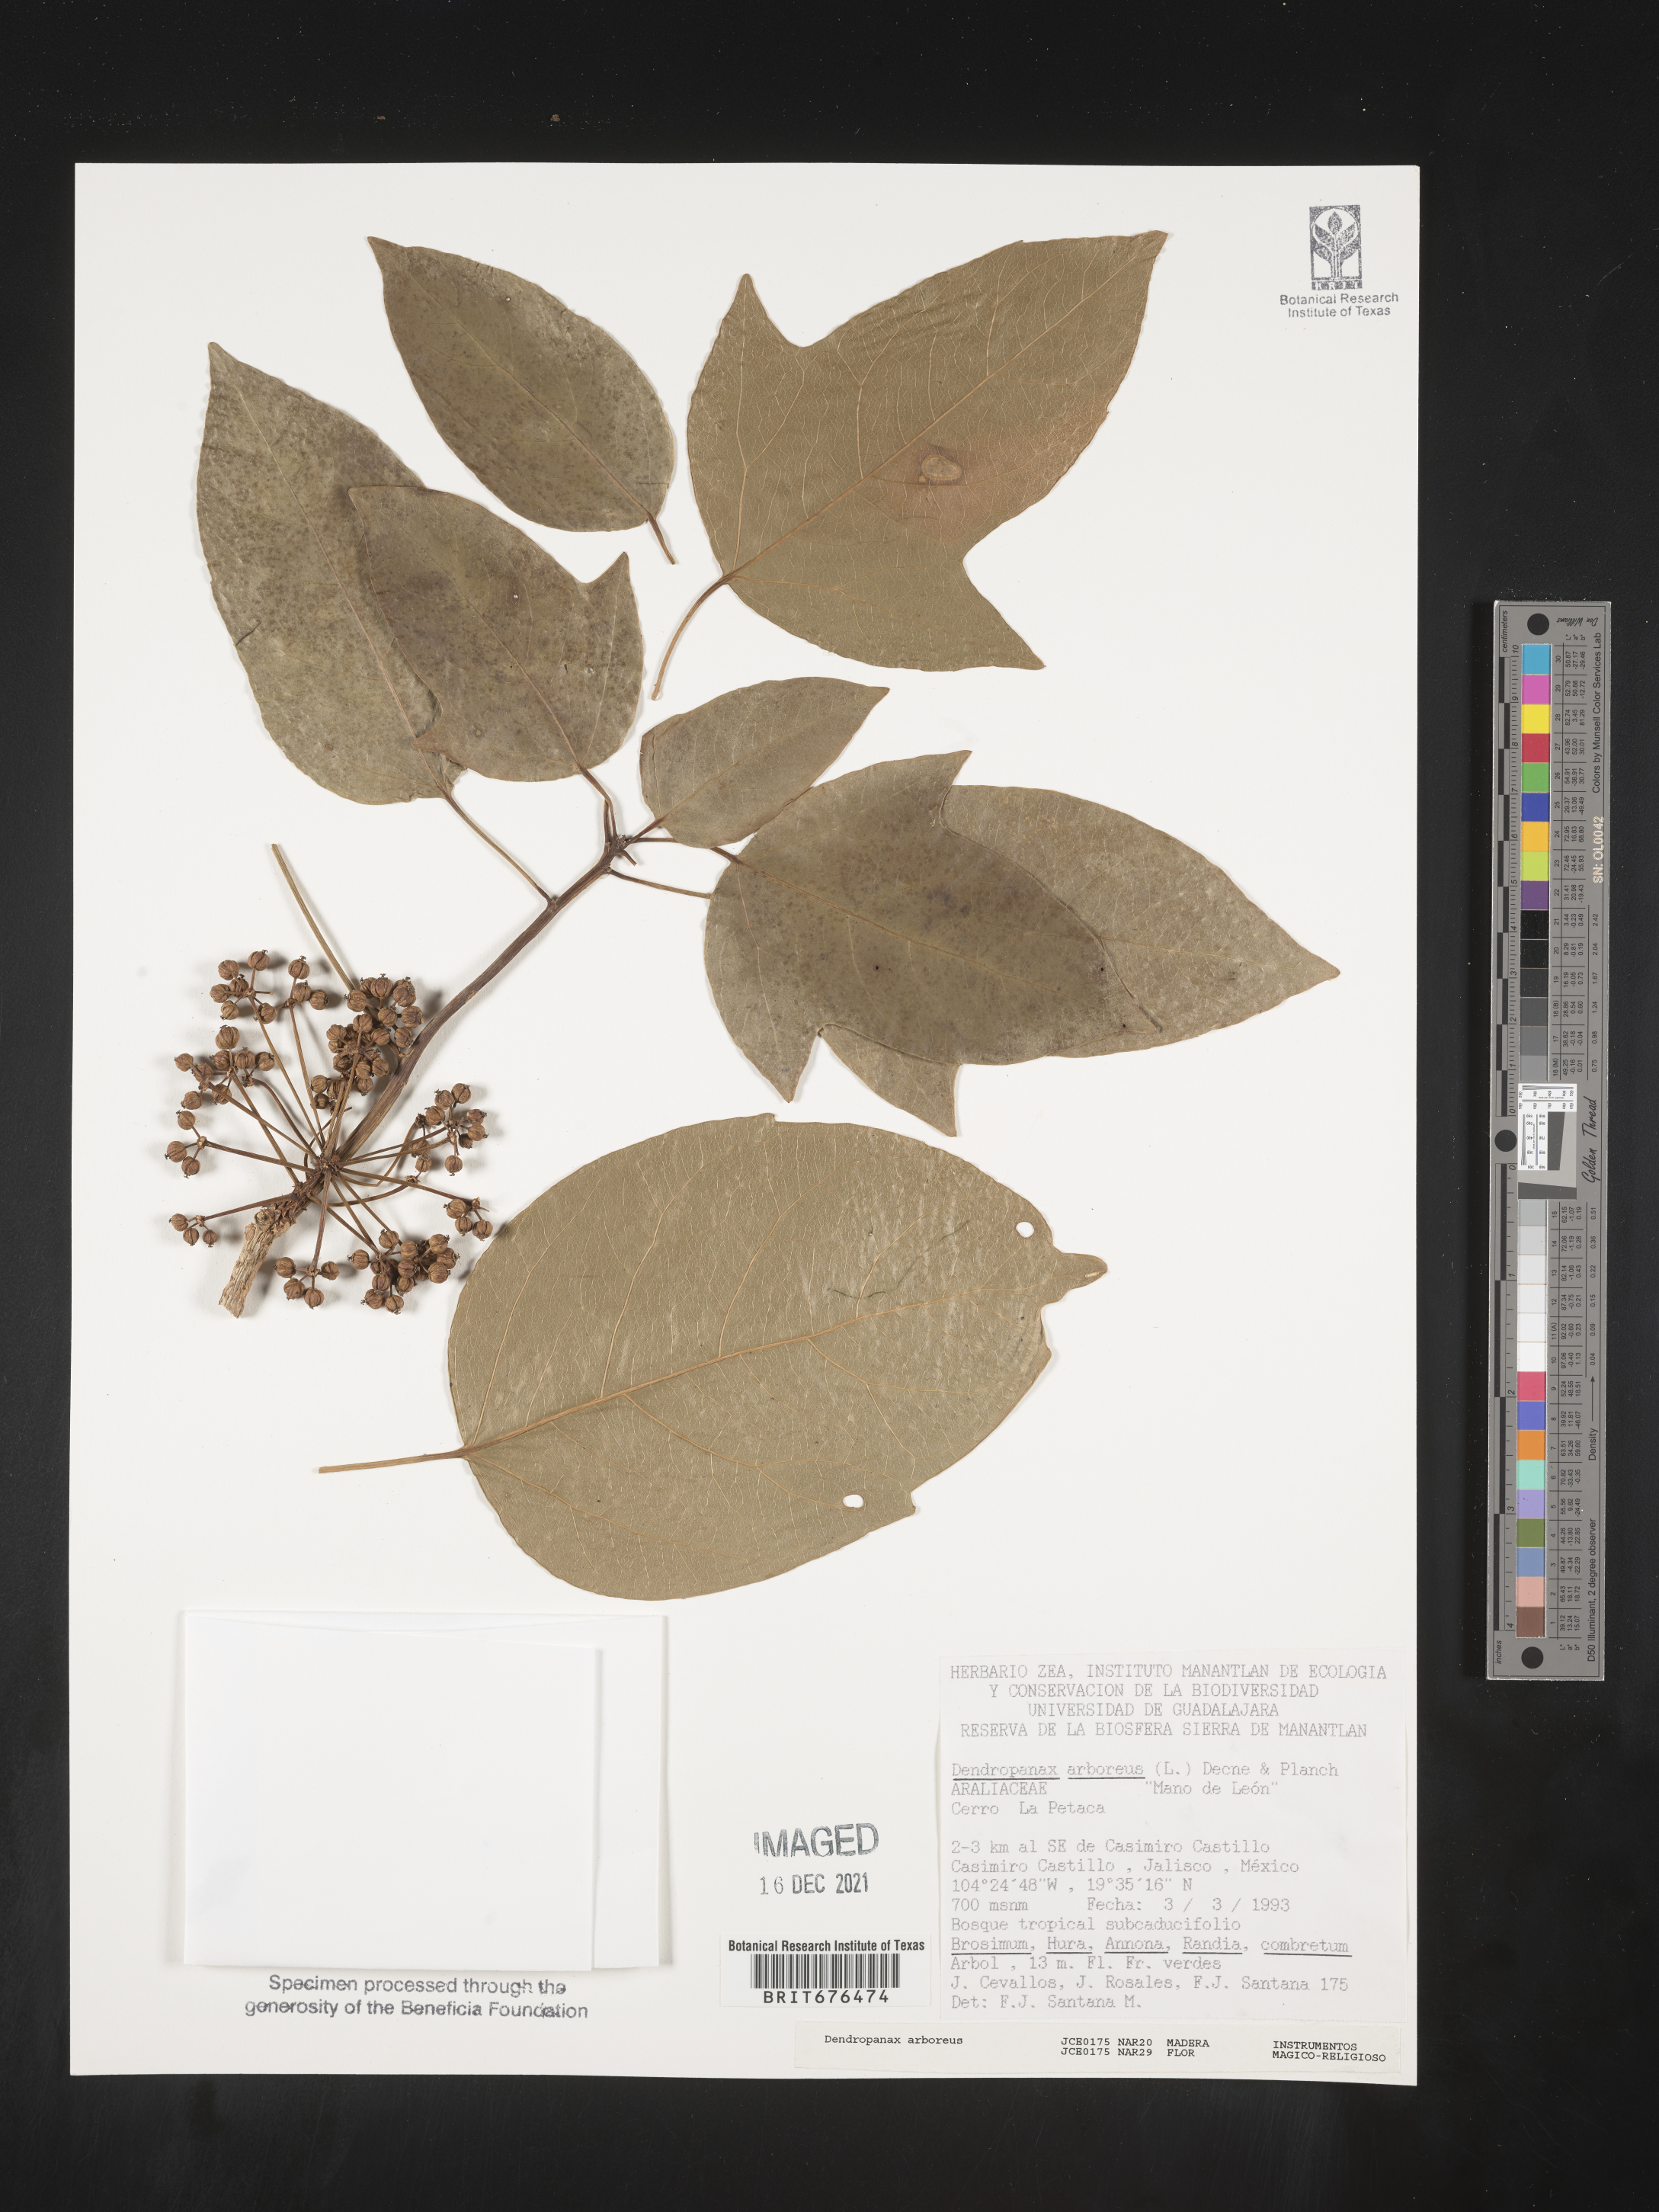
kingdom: Plantae
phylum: Tracheophyta
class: Magnoliopsida
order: Apiales
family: Araliaceae
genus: Dendropanax
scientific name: Dendropanax
